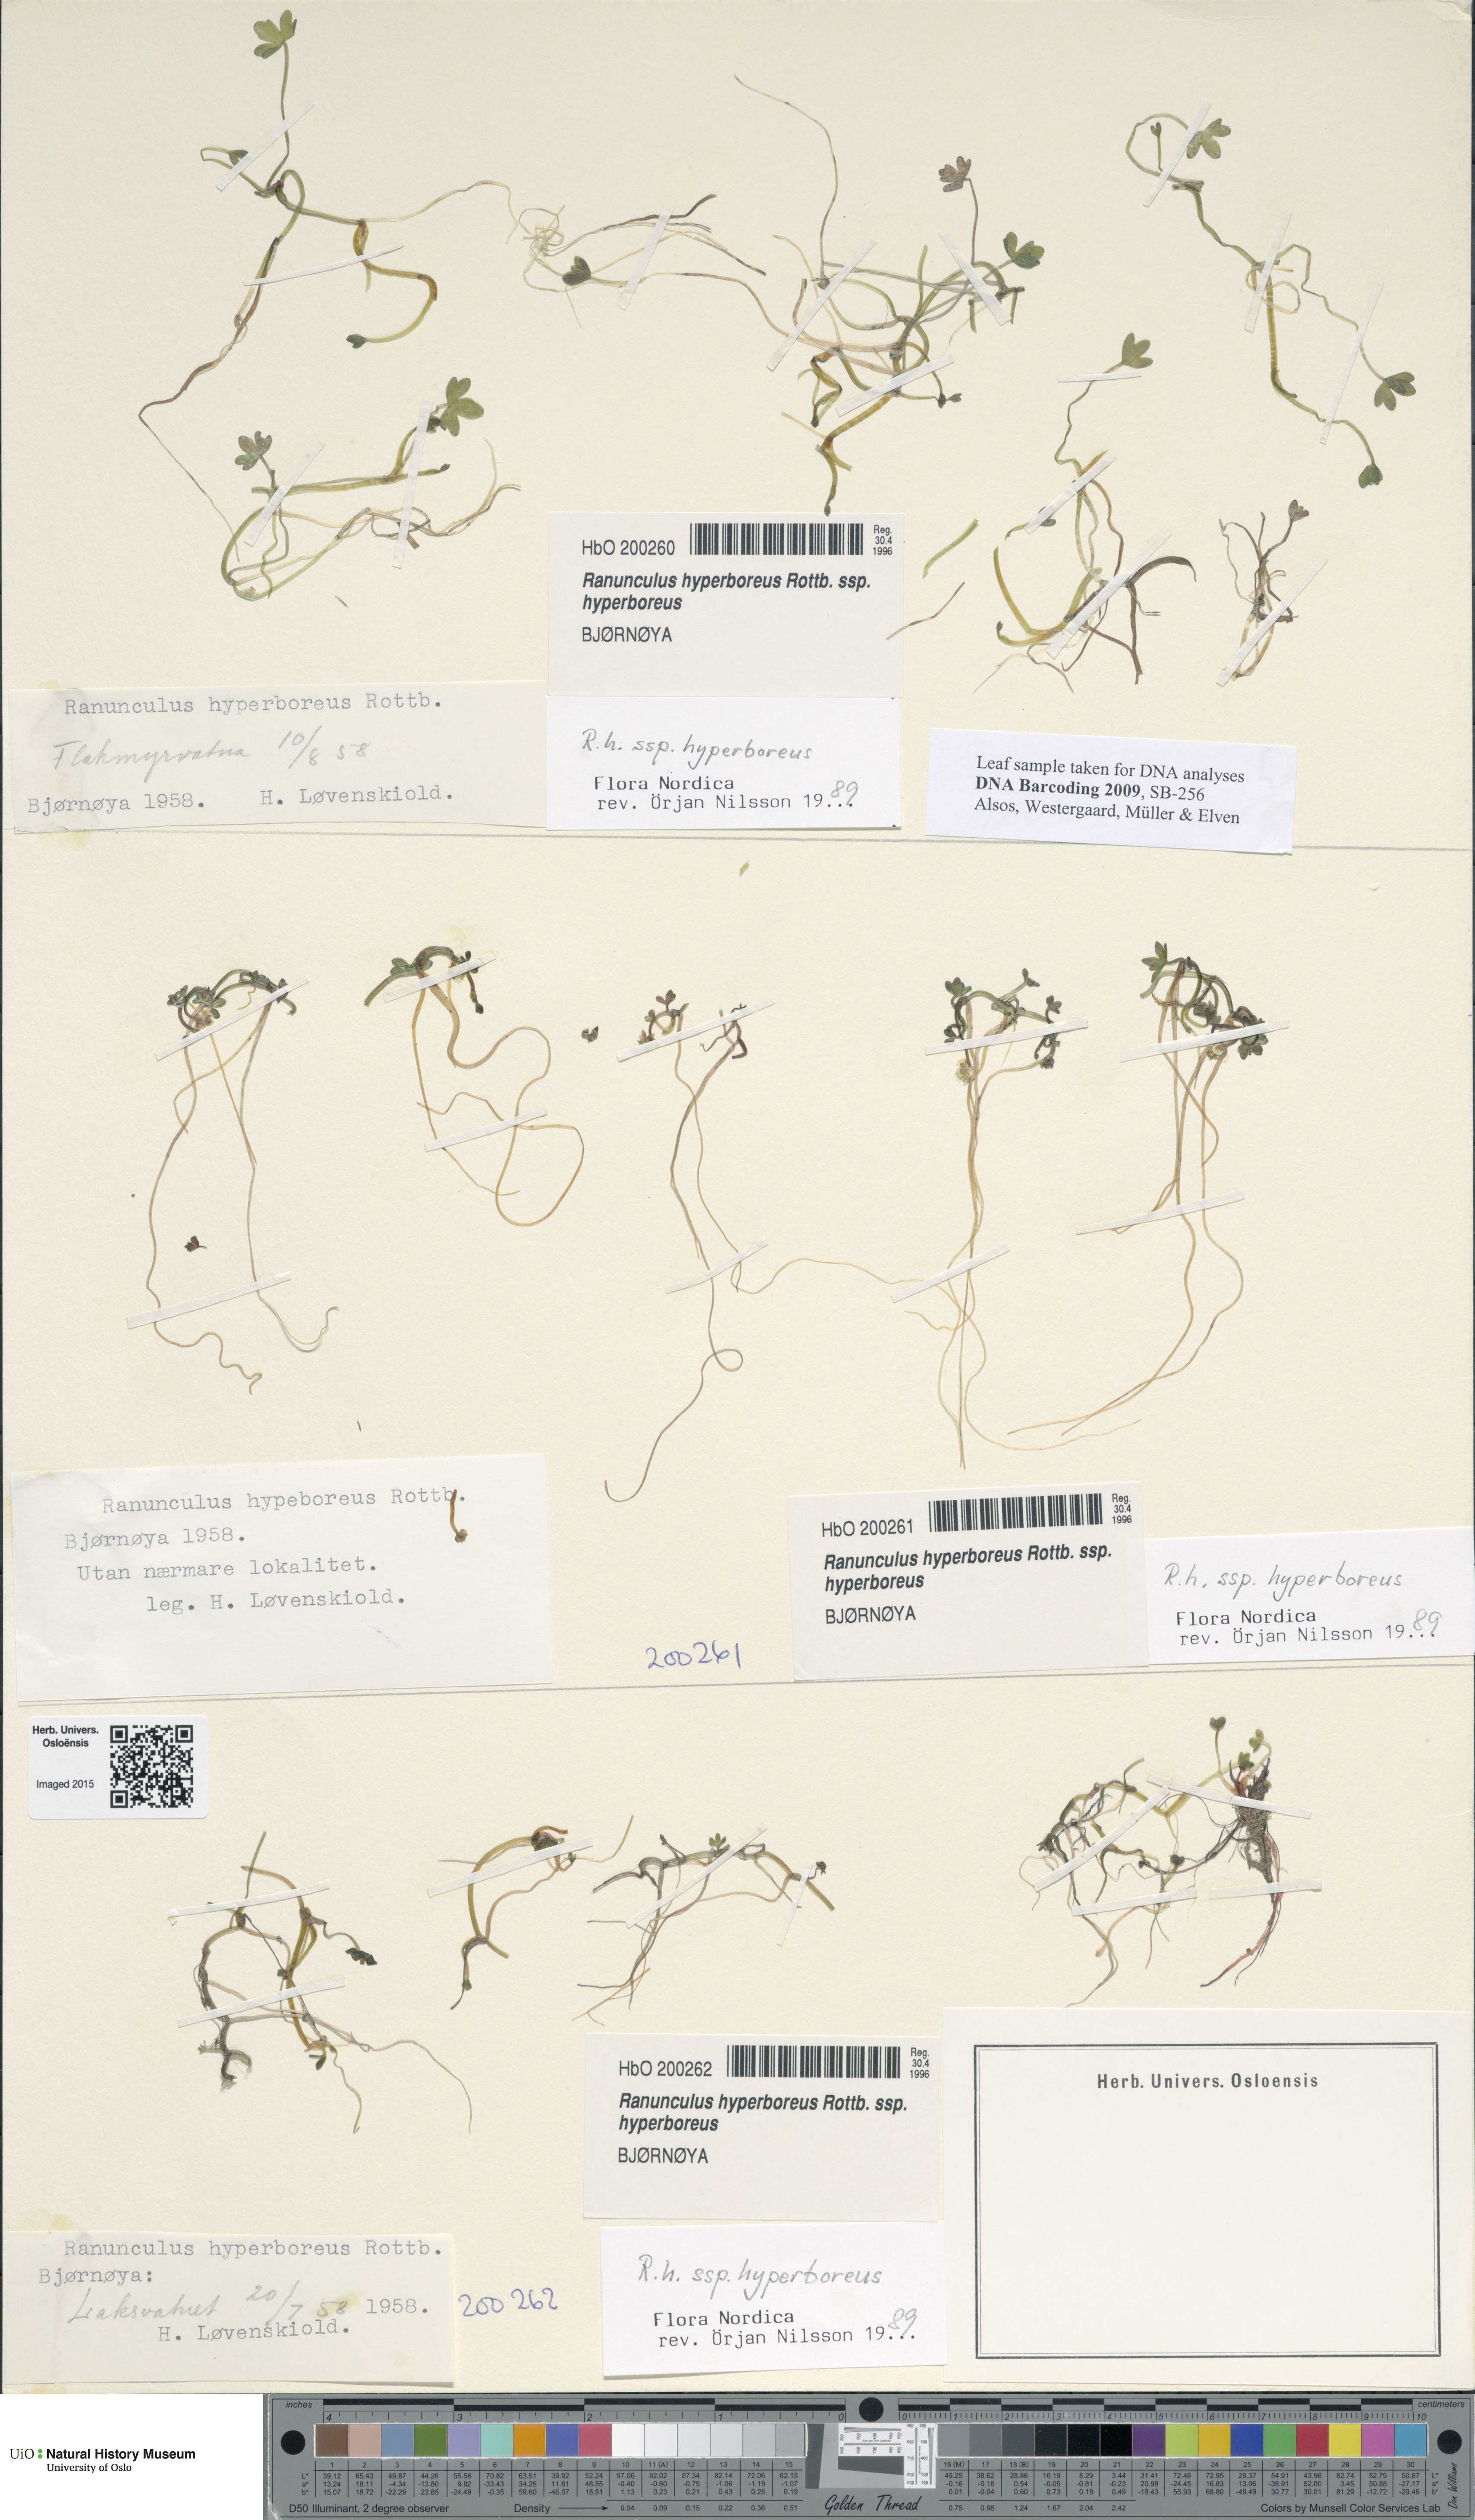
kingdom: Plantae
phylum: Tracheophyta
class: Magnoliopsida
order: Ranunculales
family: Ranunculaceae
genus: Ranunculus
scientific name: Ranunculus hyperboreus
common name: Arctic buttercup
